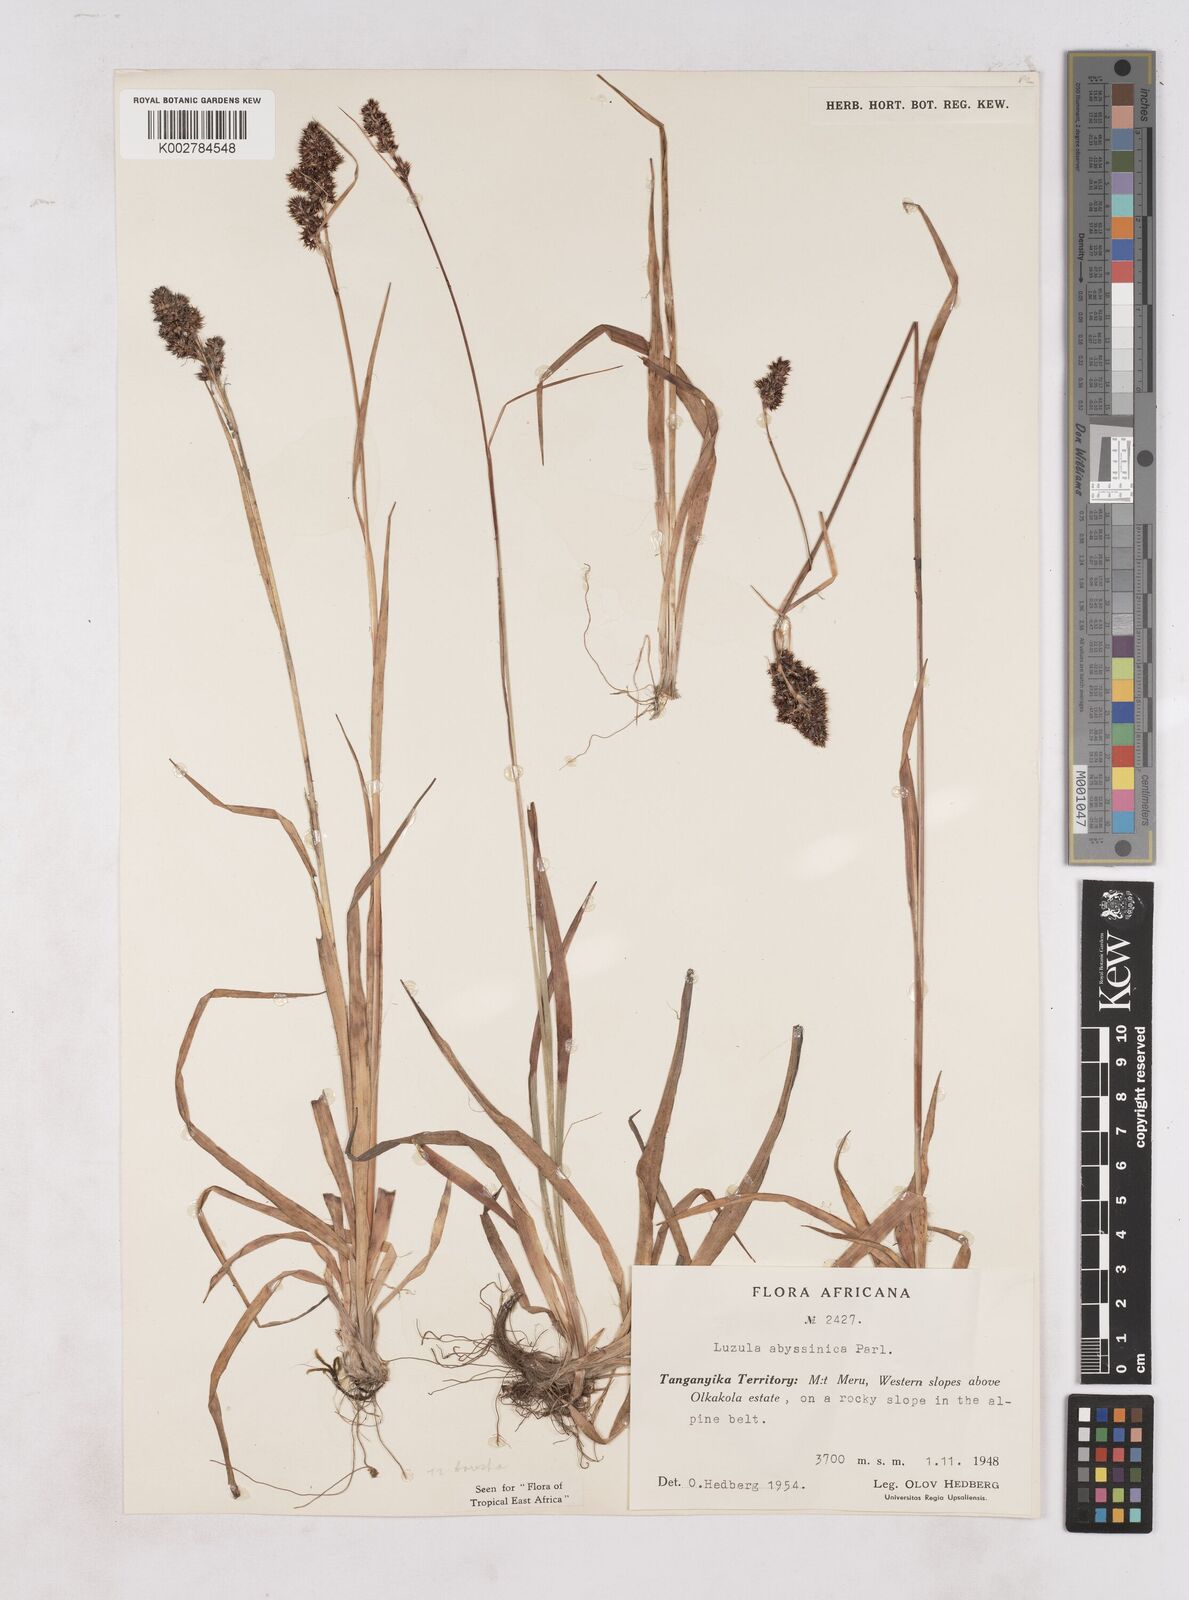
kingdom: Plantae
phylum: Tracheophyta
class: Liliopsida
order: Poales
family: Juncaceae
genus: Luzula
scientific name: Luzula abyssinica
